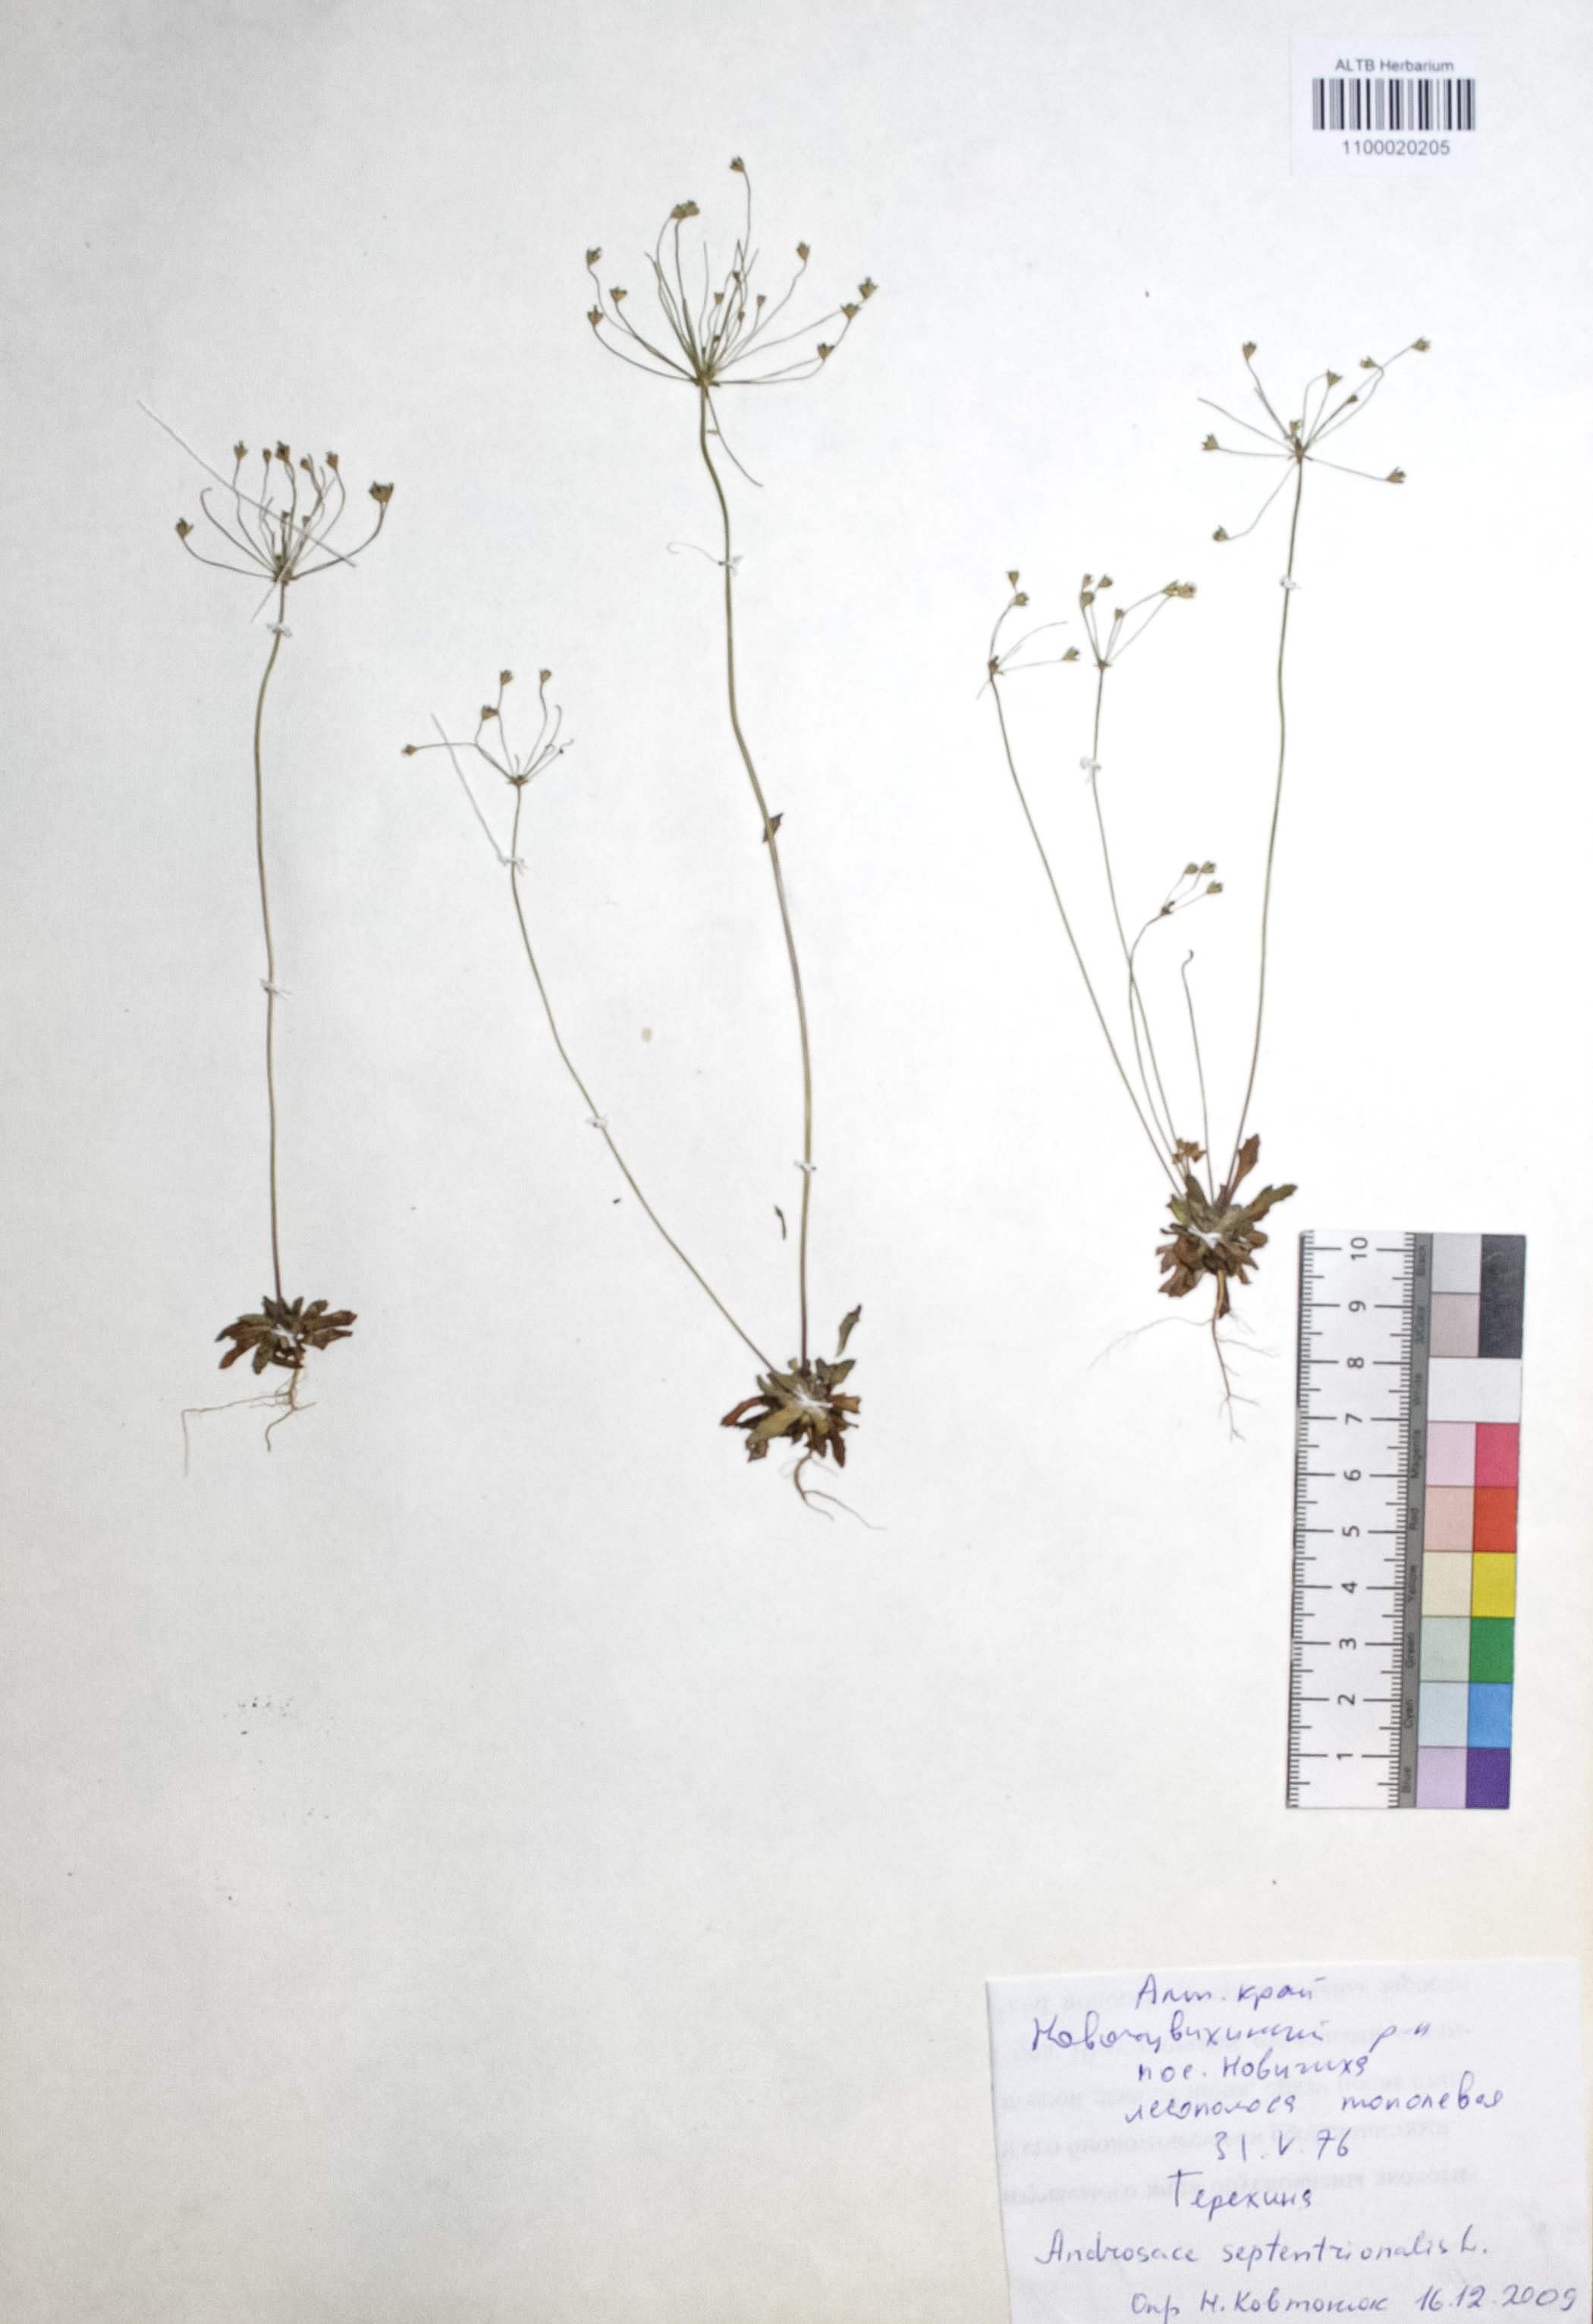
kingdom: Plantae
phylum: Tracheophyta
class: Magnoliopsida
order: Ericales
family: Primulaceae
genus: Androsace
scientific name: Androsace septentrionalis
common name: Hairy northern fairy-candelabra
